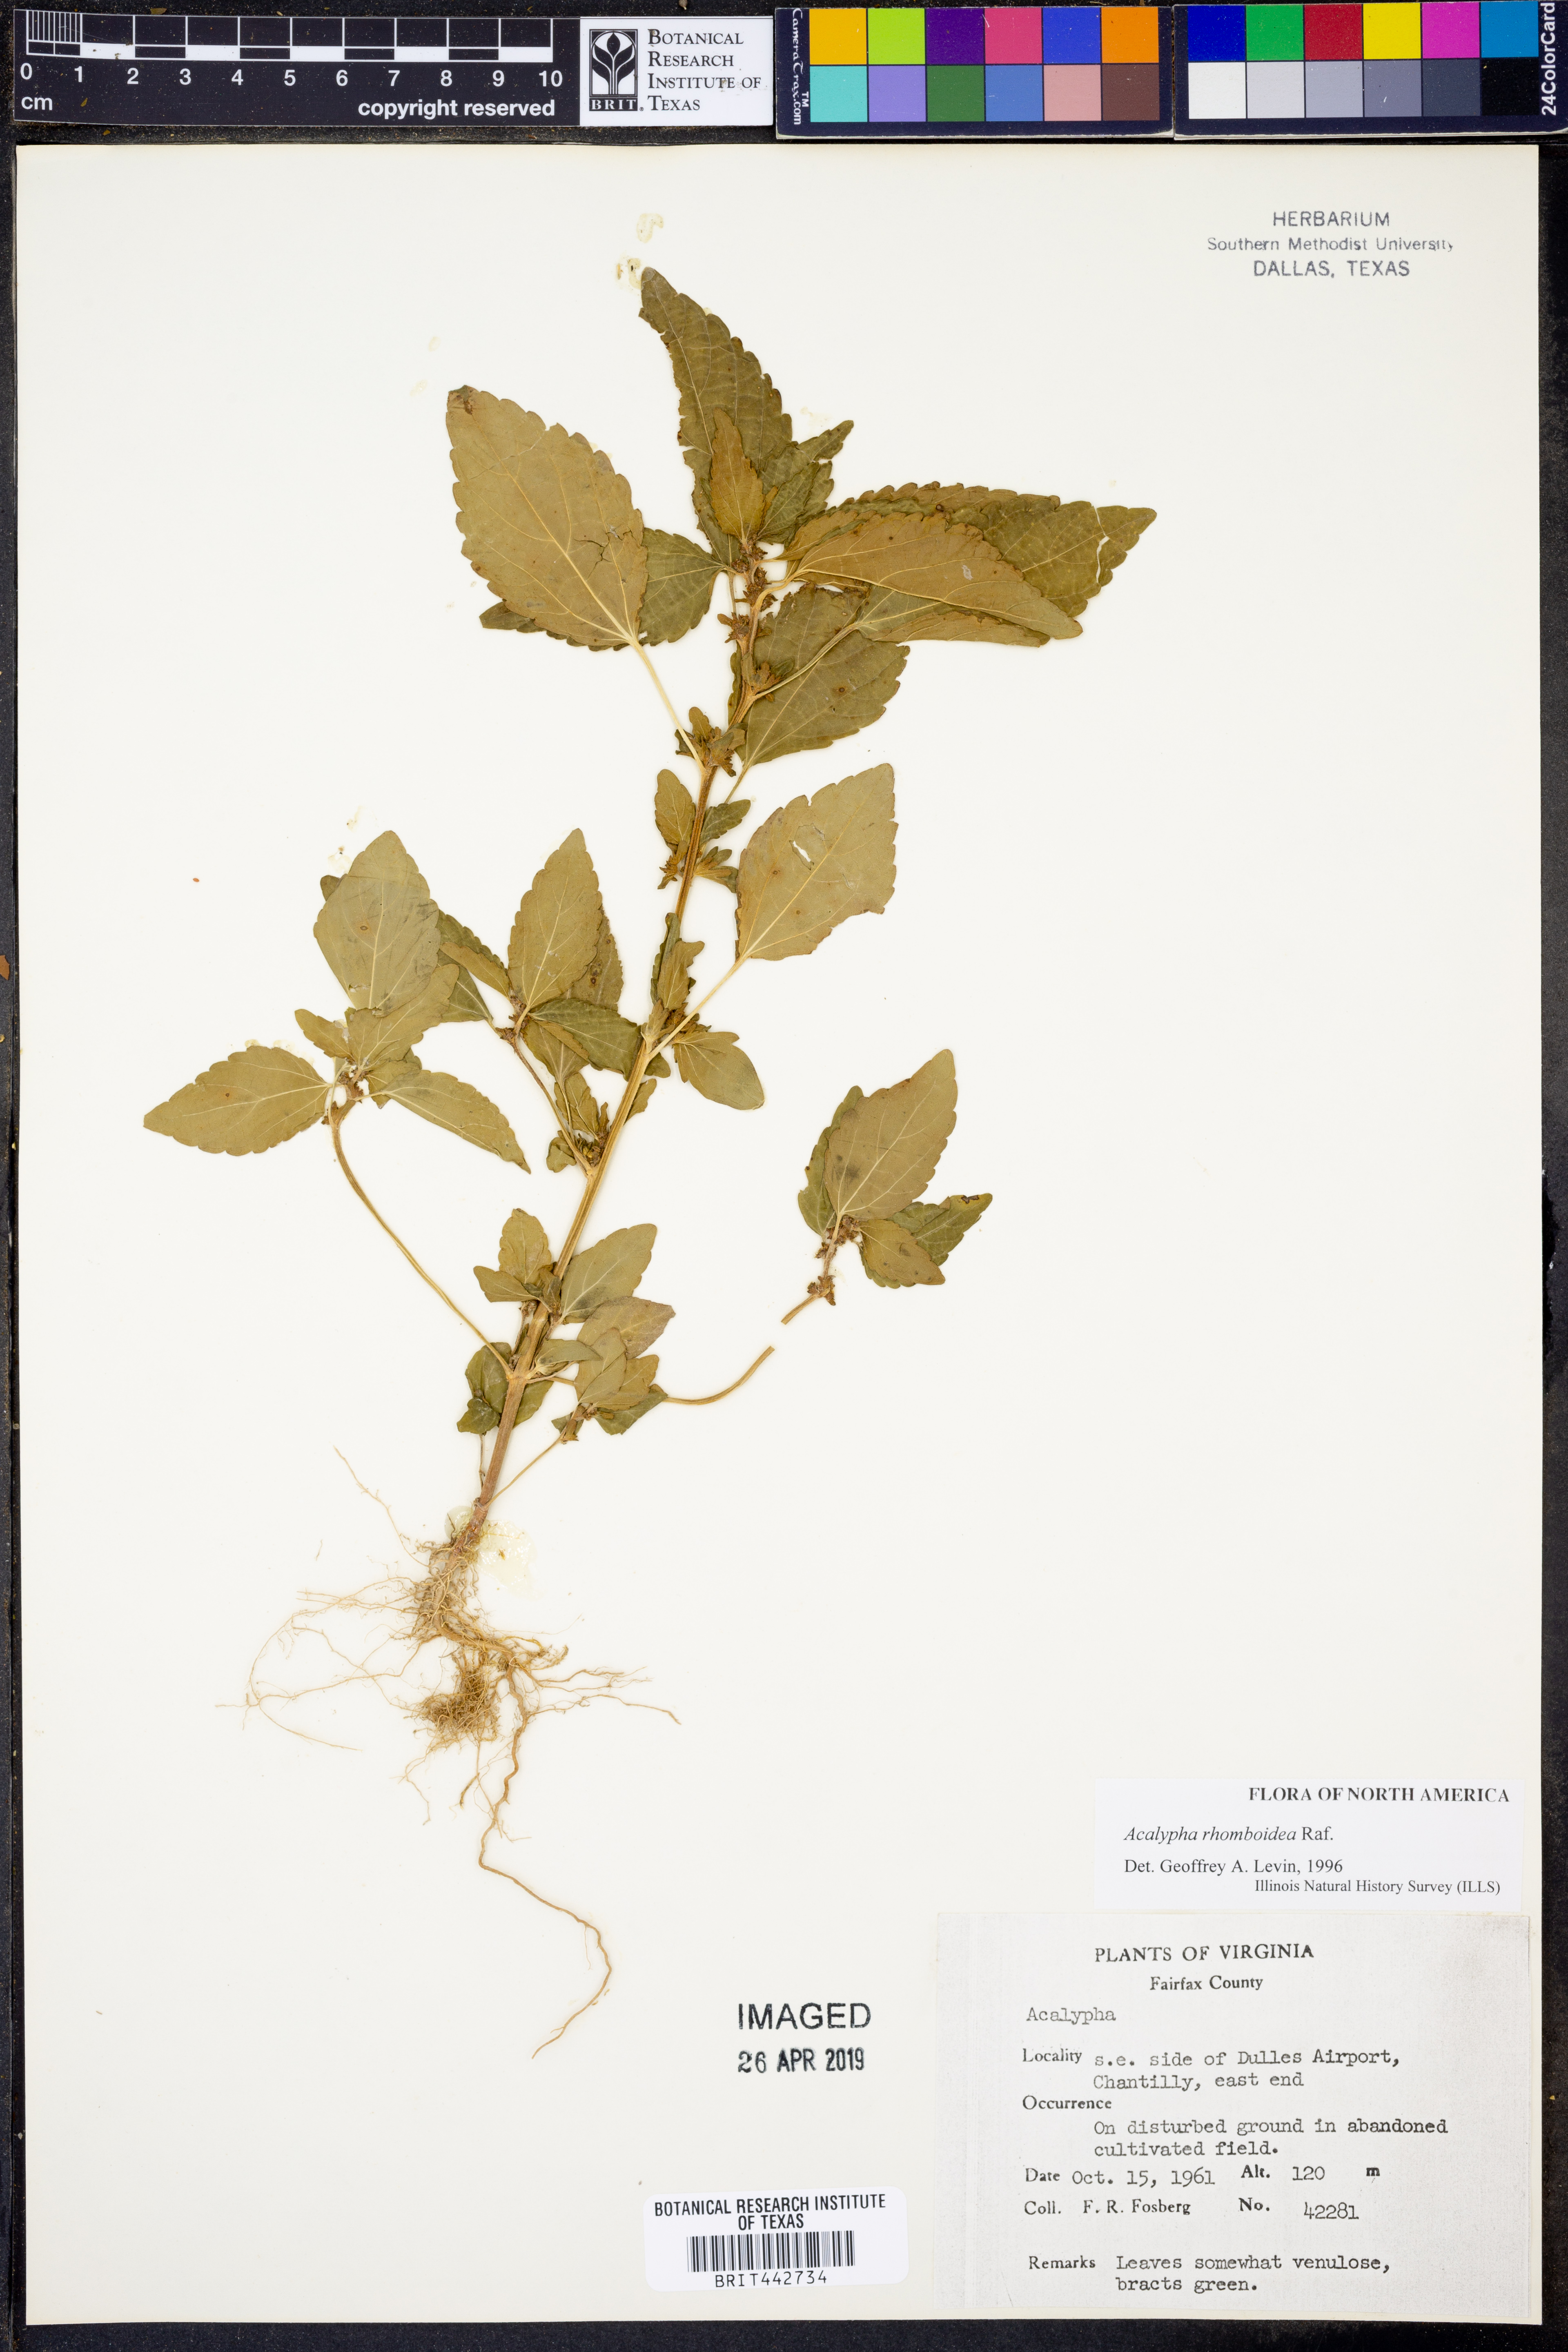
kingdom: Plantae
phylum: Tracheophyta
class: Magnoliopsida
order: Malpighiales
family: Euphorbiaceae
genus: Acalypha
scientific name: Acalypha rhomboidea
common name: Rhombic copperleaf
